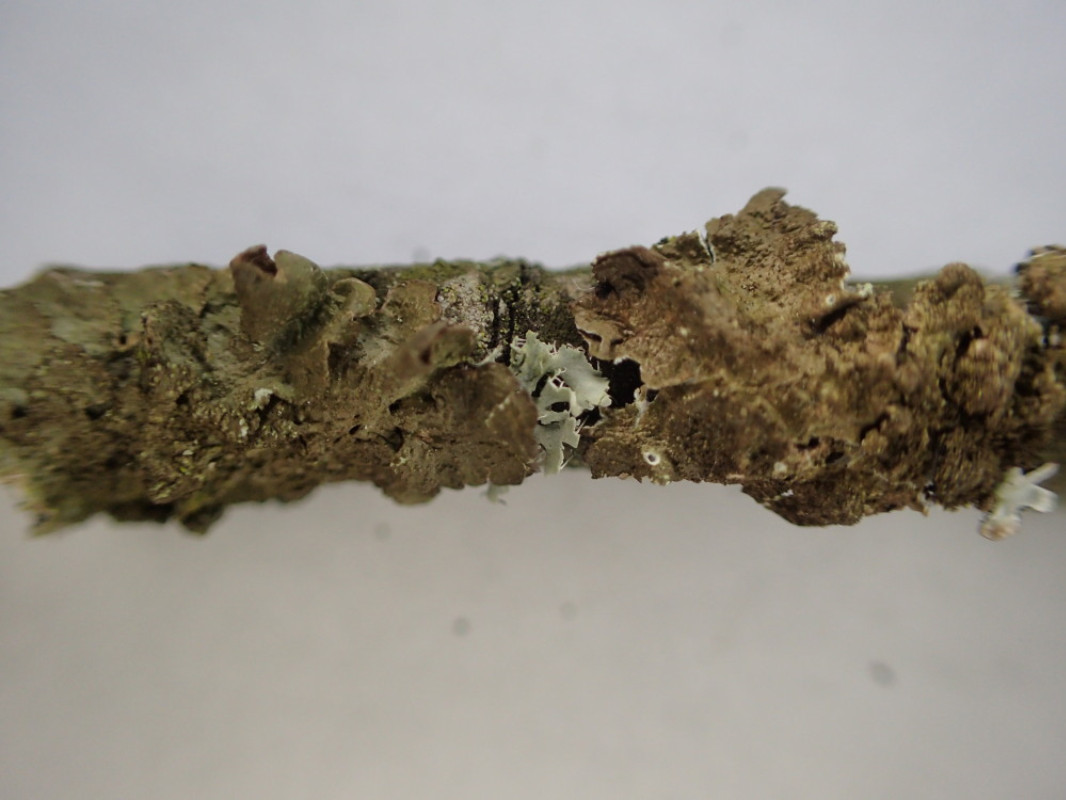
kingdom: Fungi
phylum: Ascomycota
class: Lecanoromycetes
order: Lecanorales
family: Parmeliaceae
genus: Melanelixia
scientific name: Melanelixia subaurifera
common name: guldpudret skållav
